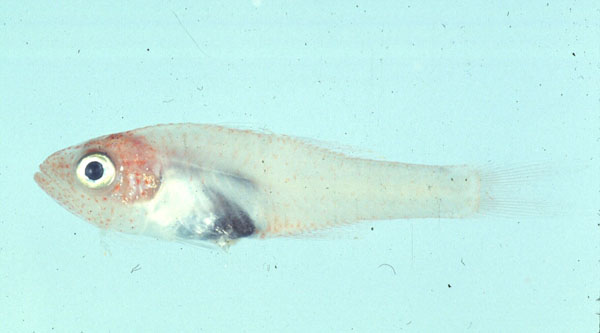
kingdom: Animalia
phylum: Chordata
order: Perciformes
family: Apogonidae
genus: Cercamia
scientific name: Cercamia eremia
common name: Glassy cardinalfish
